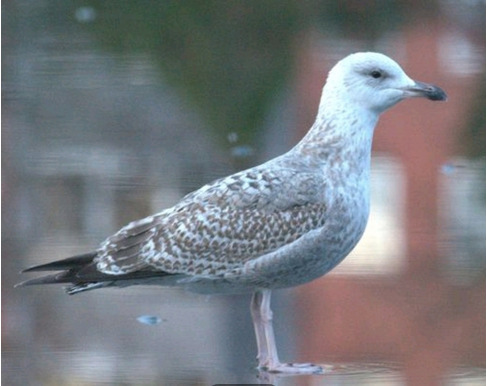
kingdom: Animalia
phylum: Chordata
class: Aves
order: Charadriiformes
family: Laridae
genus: Larus
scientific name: Larus argentatus
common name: Sølvmåge
